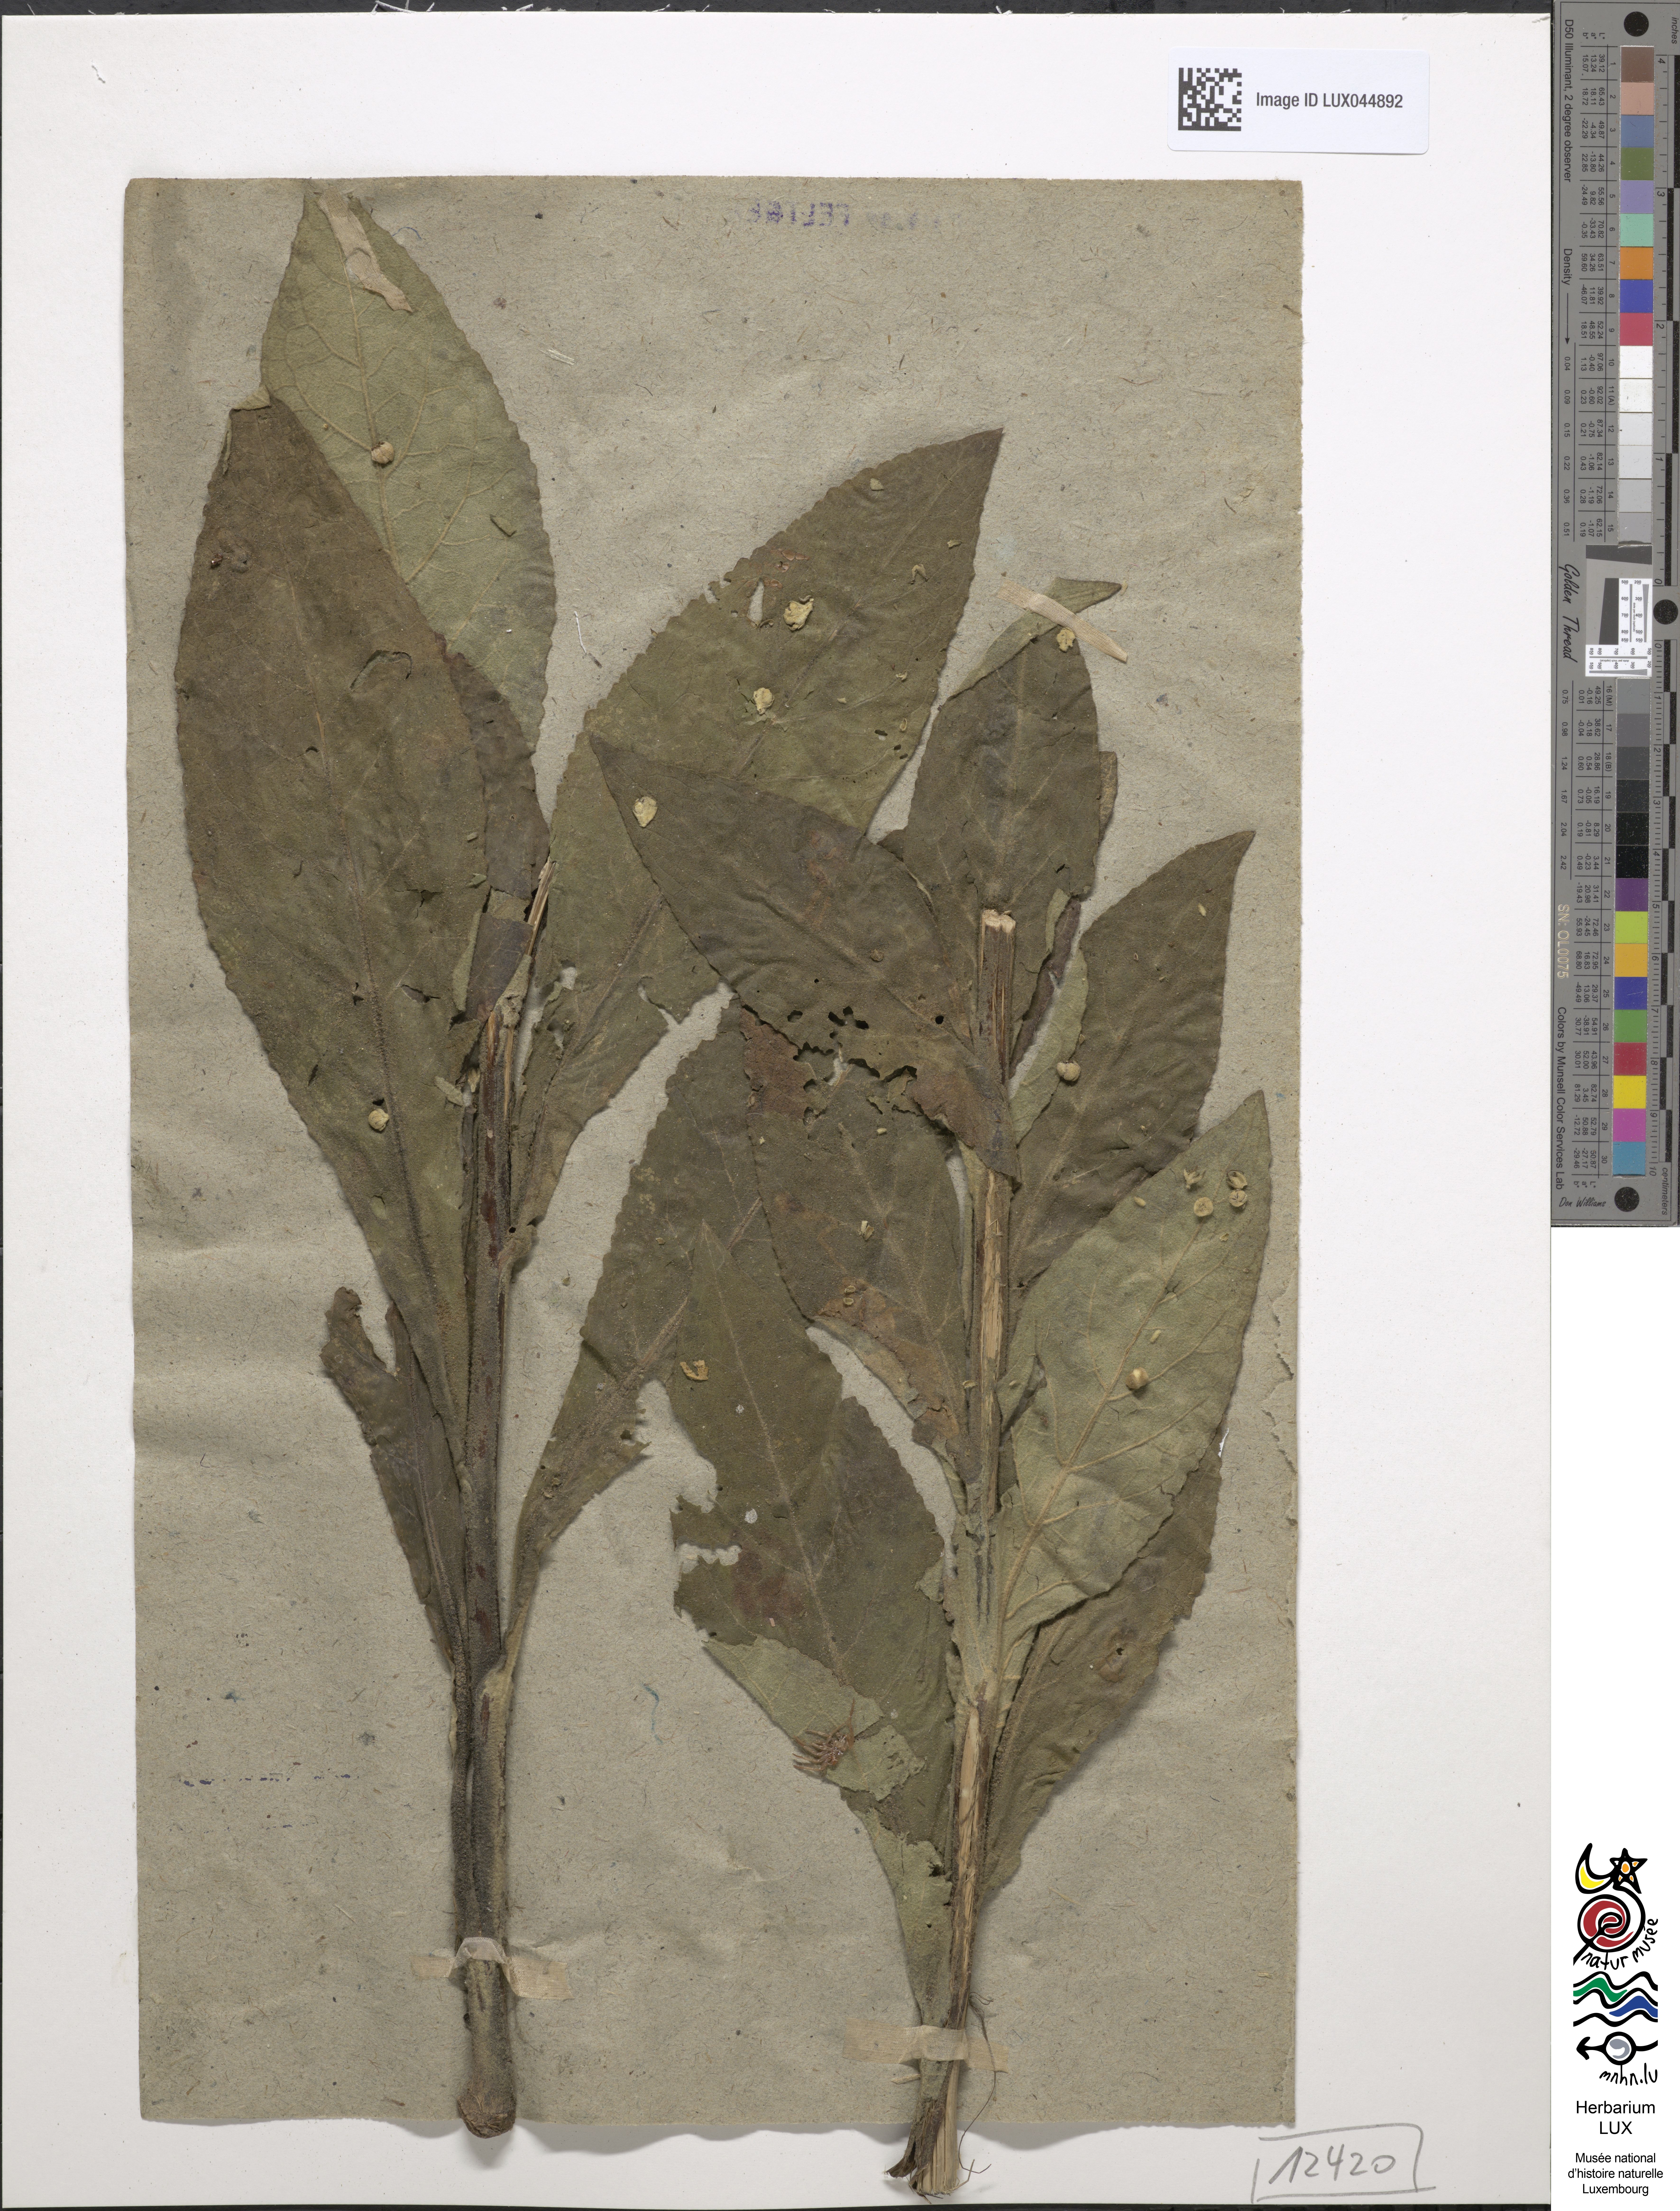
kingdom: Plantae
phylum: Tracheophyta
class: Magnoliopsida
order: Lamiales
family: Scrophulariaceae
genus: Verbascum
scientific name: Verbascum spurium
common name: Mullein
